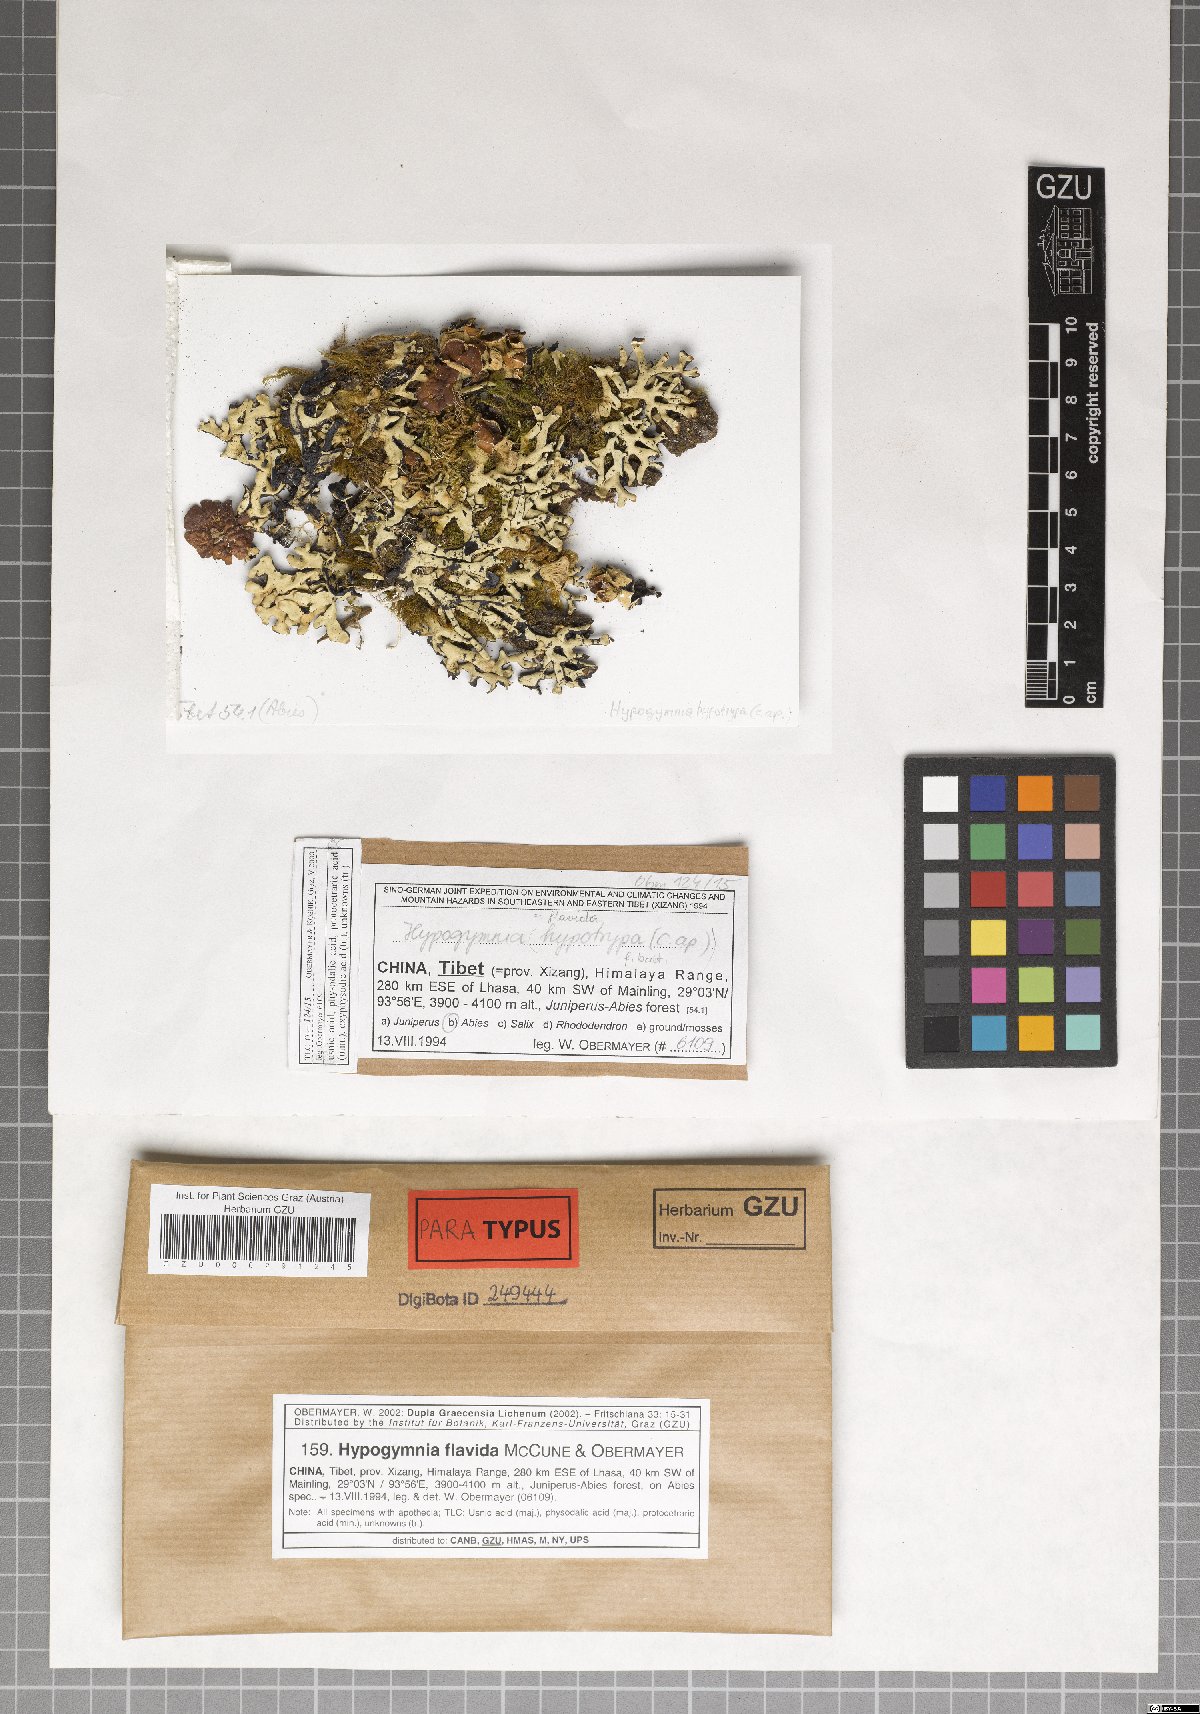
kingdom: Fungi
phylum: Ascomycota
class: Lecanoromycetes
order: Lecanorales
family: Parmeliaceae
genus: Hypogymnia
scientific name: Hypogymnia flavida
